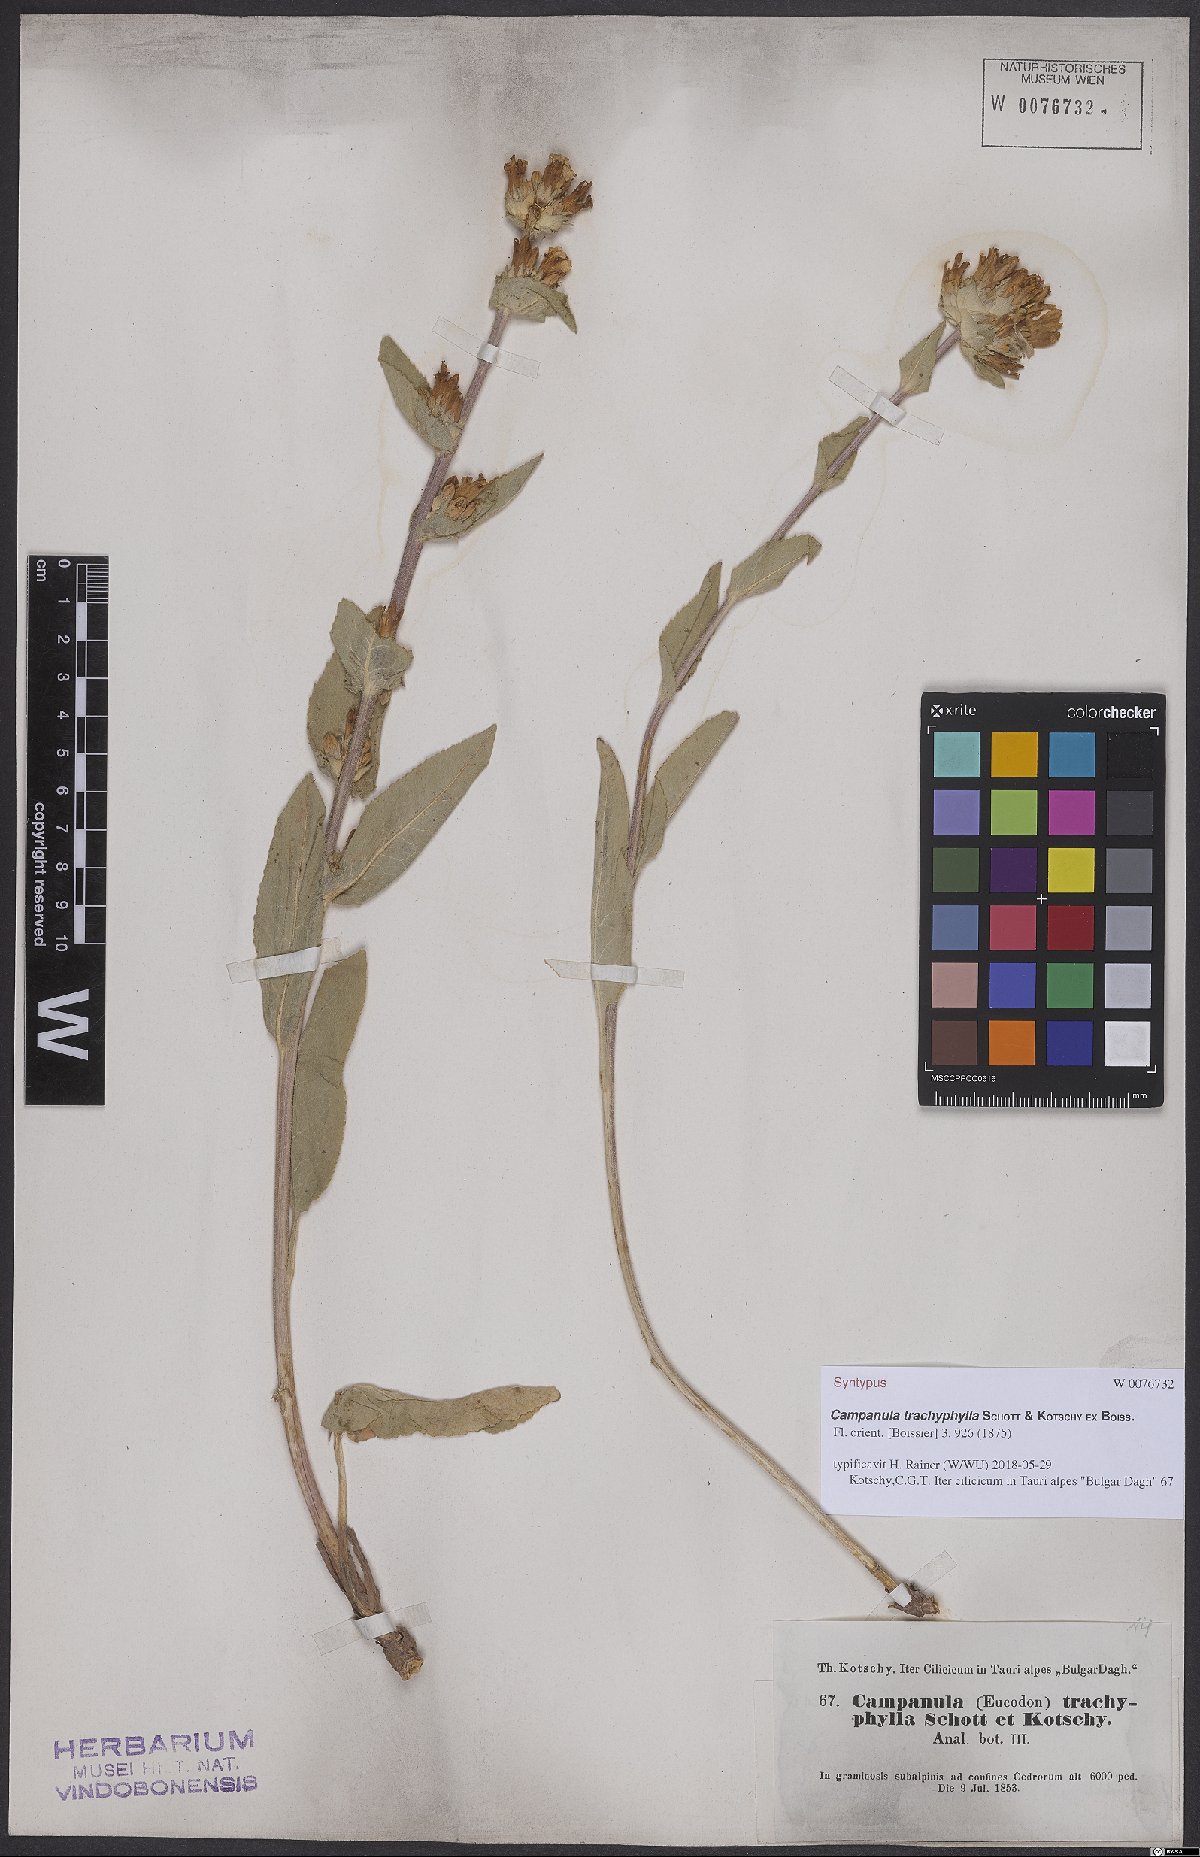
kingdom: Plantae
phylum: Tracheophyta
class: Magnoliopsida
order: Asterales
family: Campanulaceae
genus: Campanula
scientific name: Campanula trachyphylla
